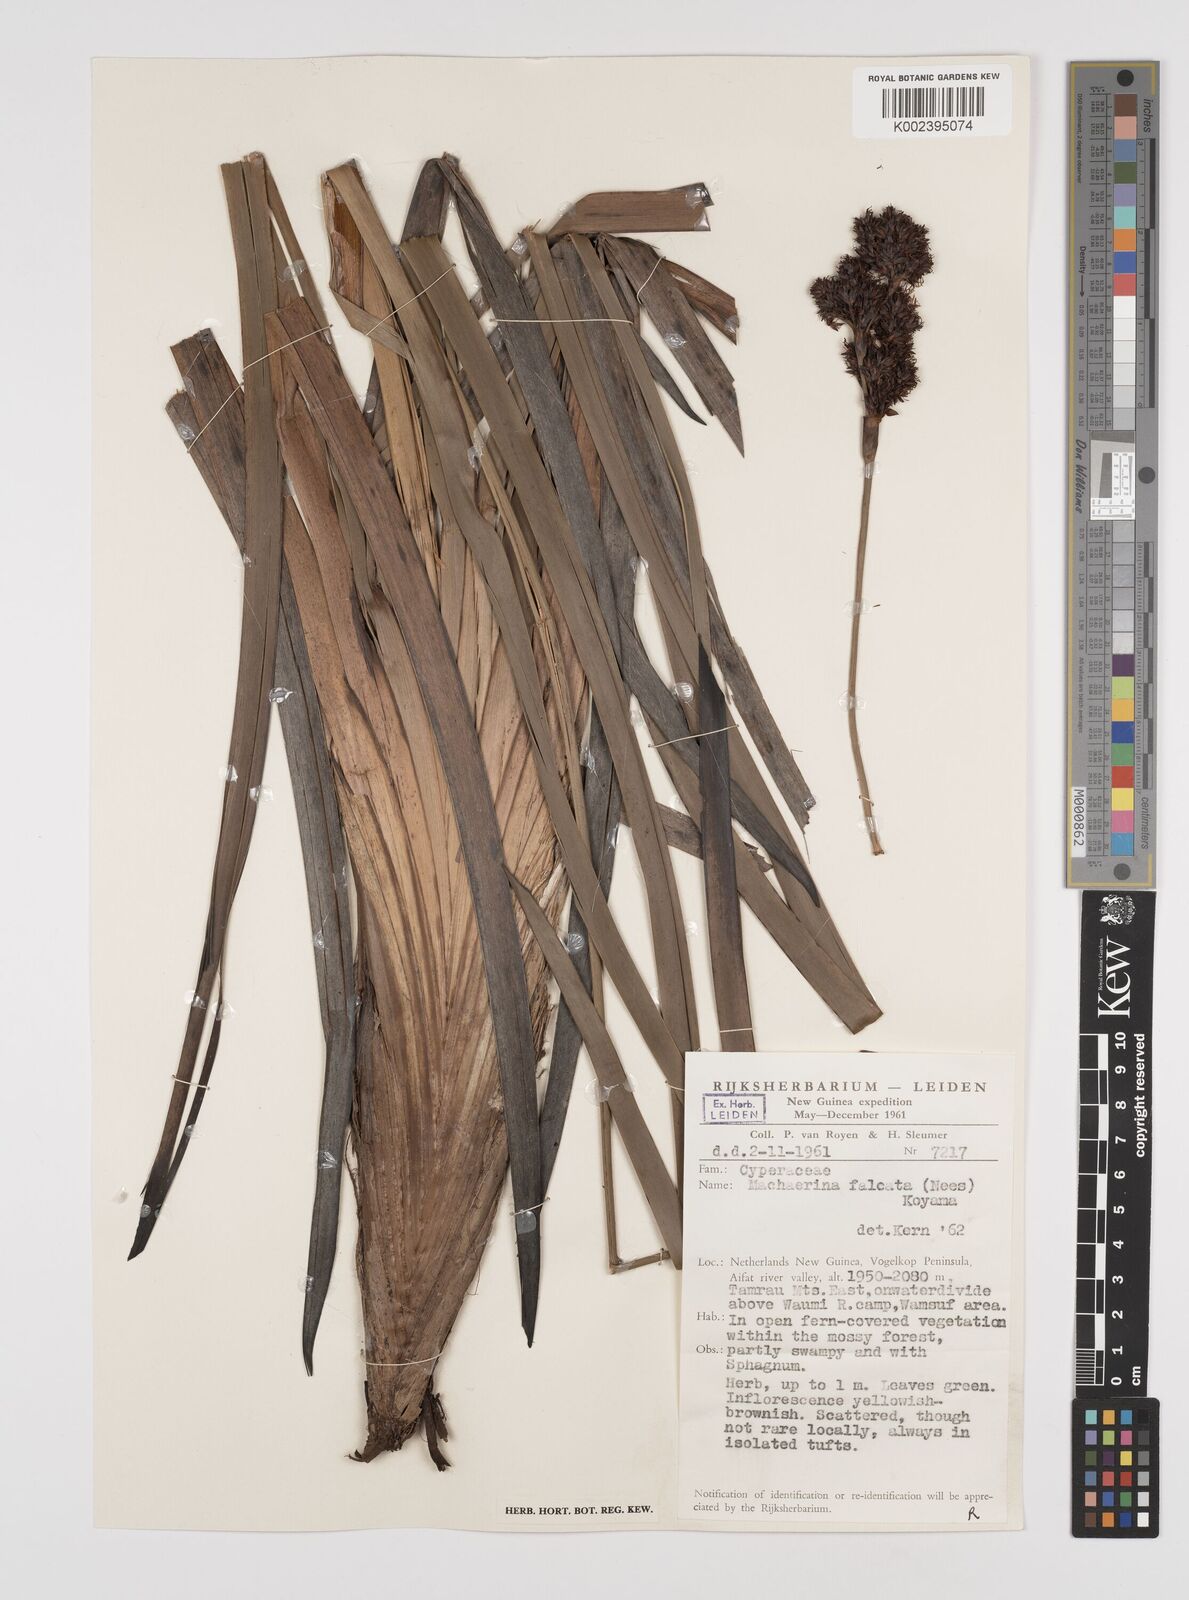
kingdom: Plantae
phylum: Tracheophyta
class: Liliopsida
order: Poales
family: Cyperaceae
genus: Machaerina
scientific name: Machaerina falcata
